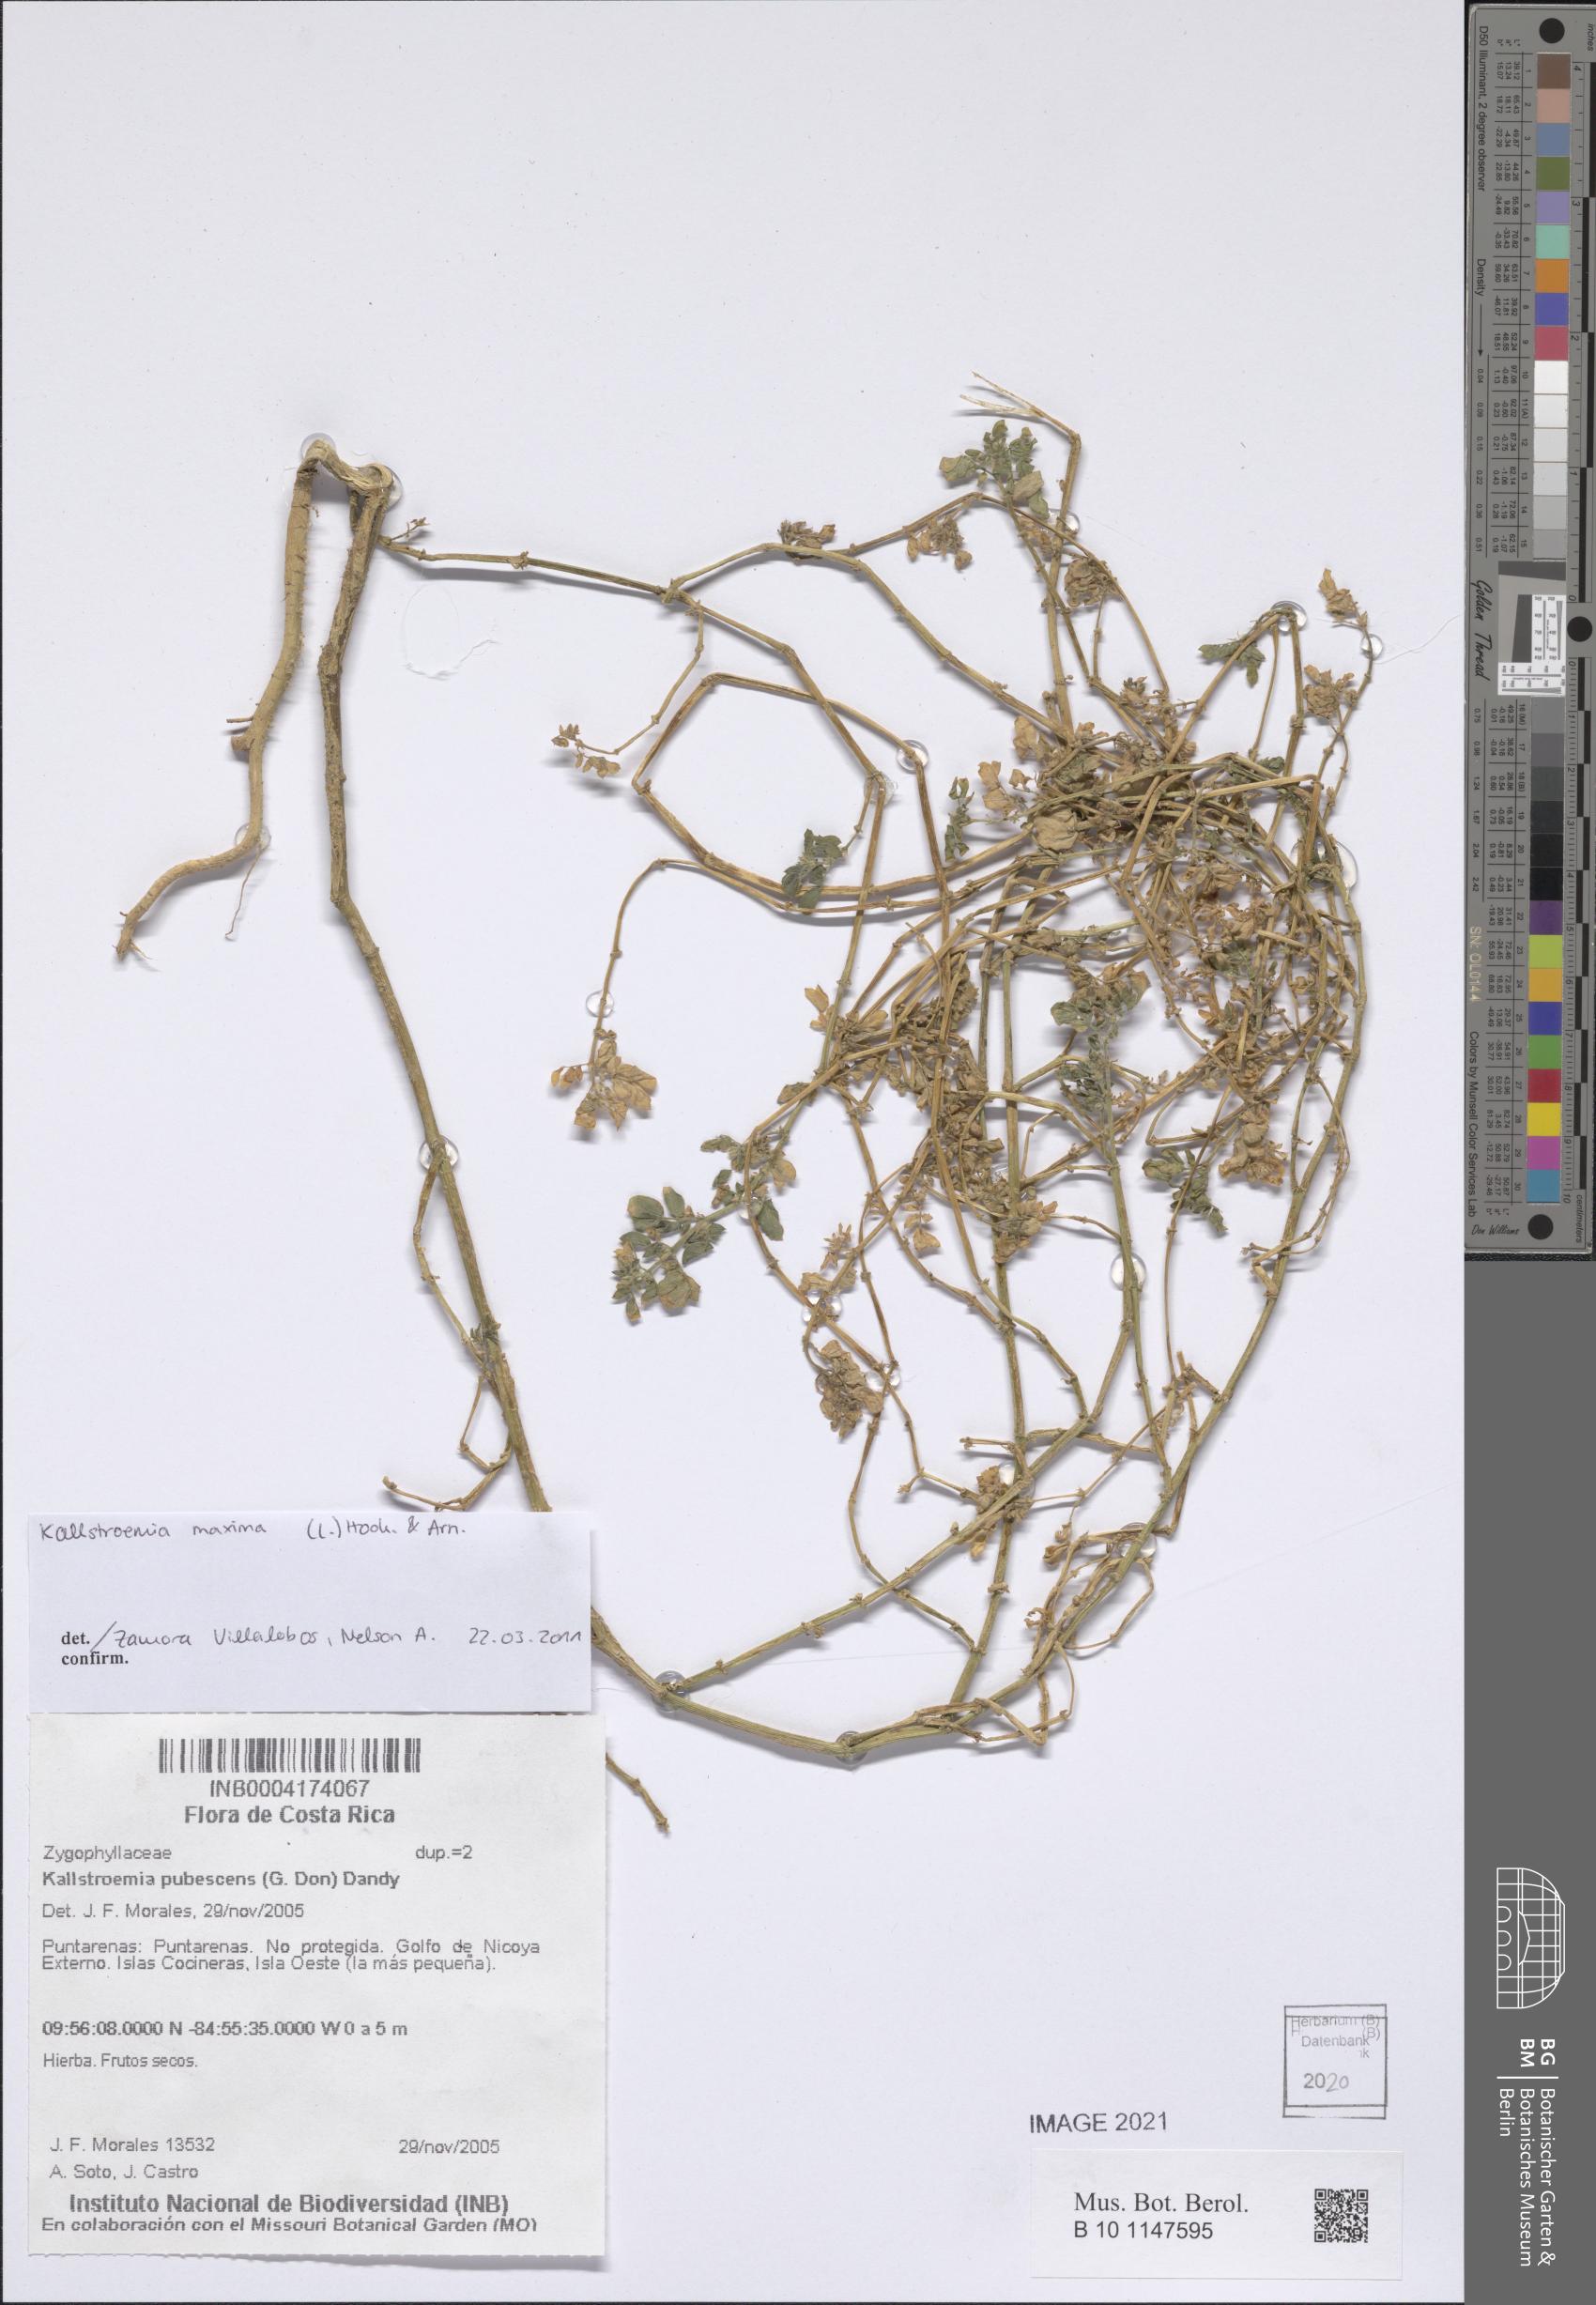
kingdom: Plantae
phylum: Tracheophyta
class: Magnoliopsida
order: Zygophyllales
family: Zygophyllaceae
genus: Kallstroemia
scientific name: Kallstroemia maxima
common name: Big caltropa
